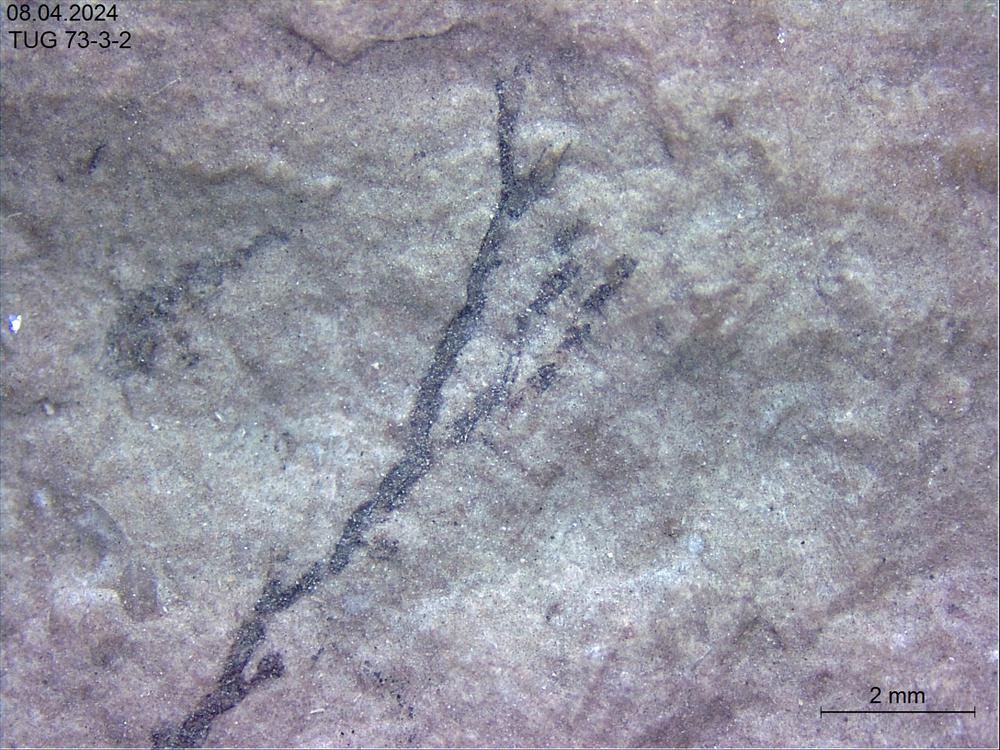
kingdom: Animalia
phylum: Mollusca
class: Rostroconchia
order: Conocardiida
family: Hippocardiidae
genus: Hippocardia
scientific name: Hippocardia
